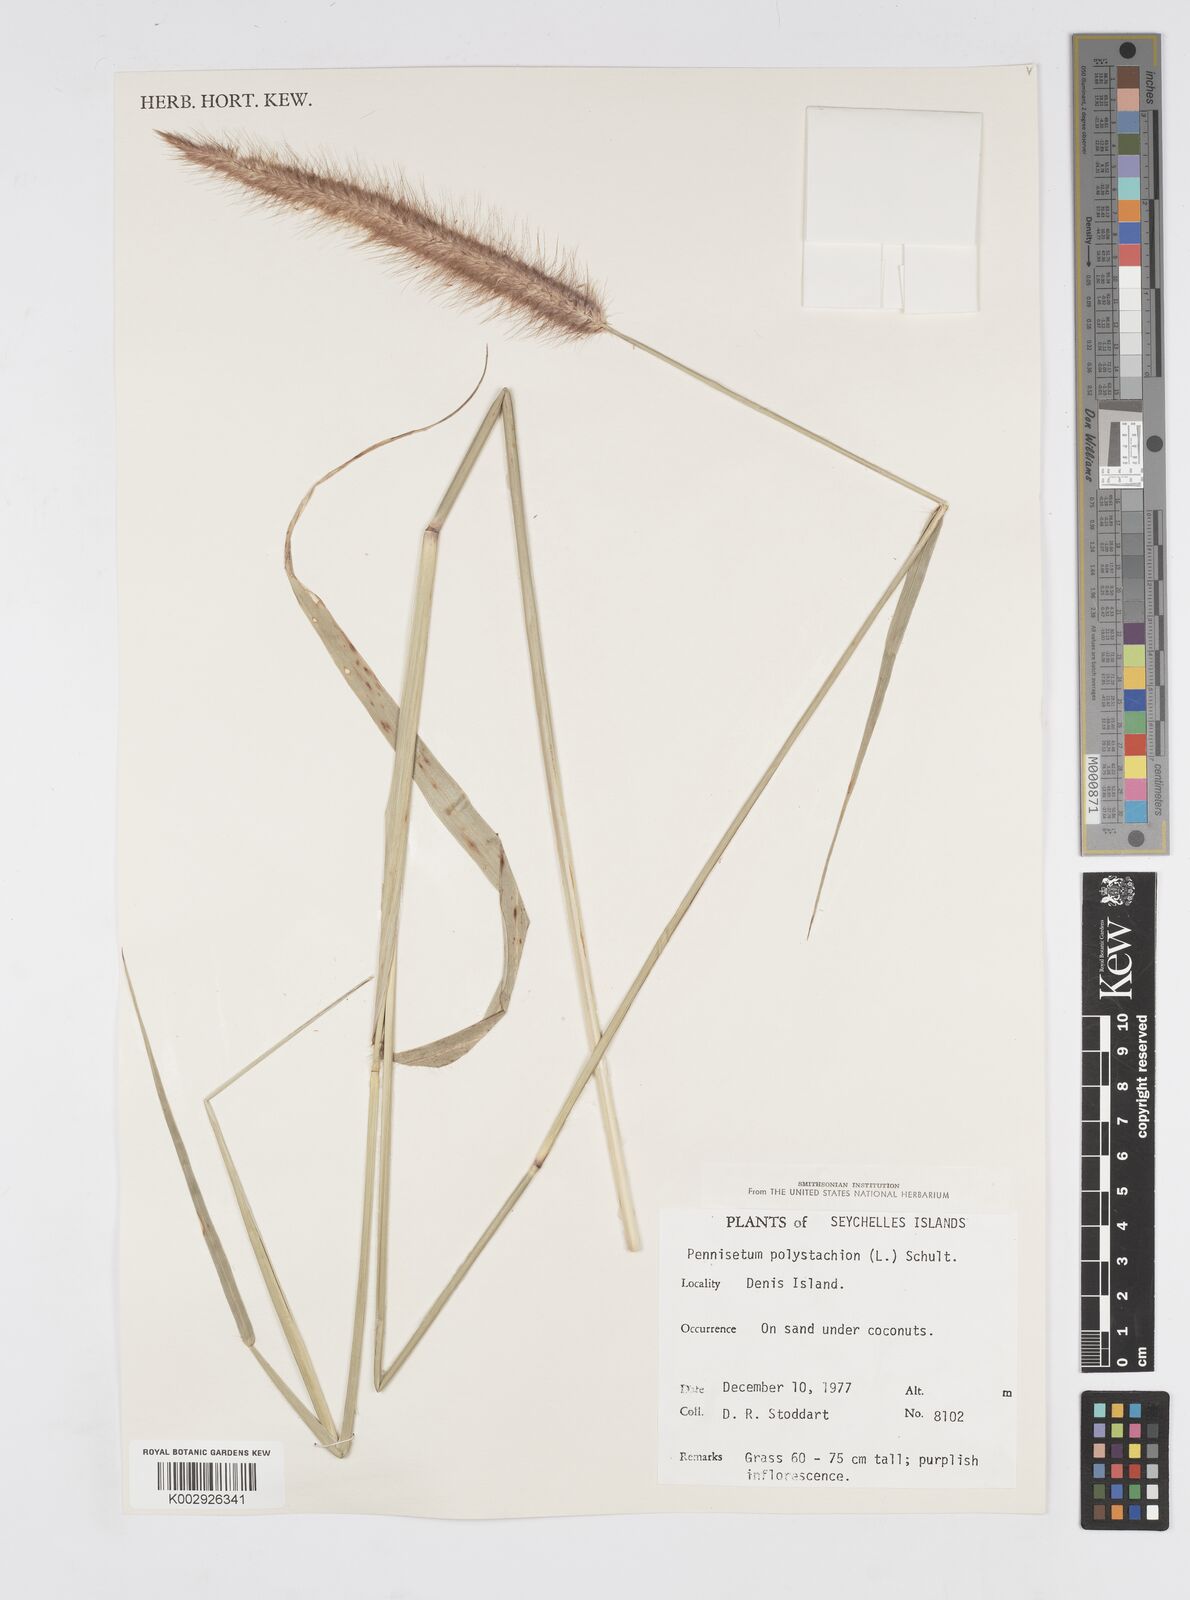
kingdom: Plantae
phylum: Tracheophyta
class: Liliopsida
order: Poales
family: Poaceae
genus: Setaria
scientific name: Setaria parviflora
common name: Knotroot bristle-grass
